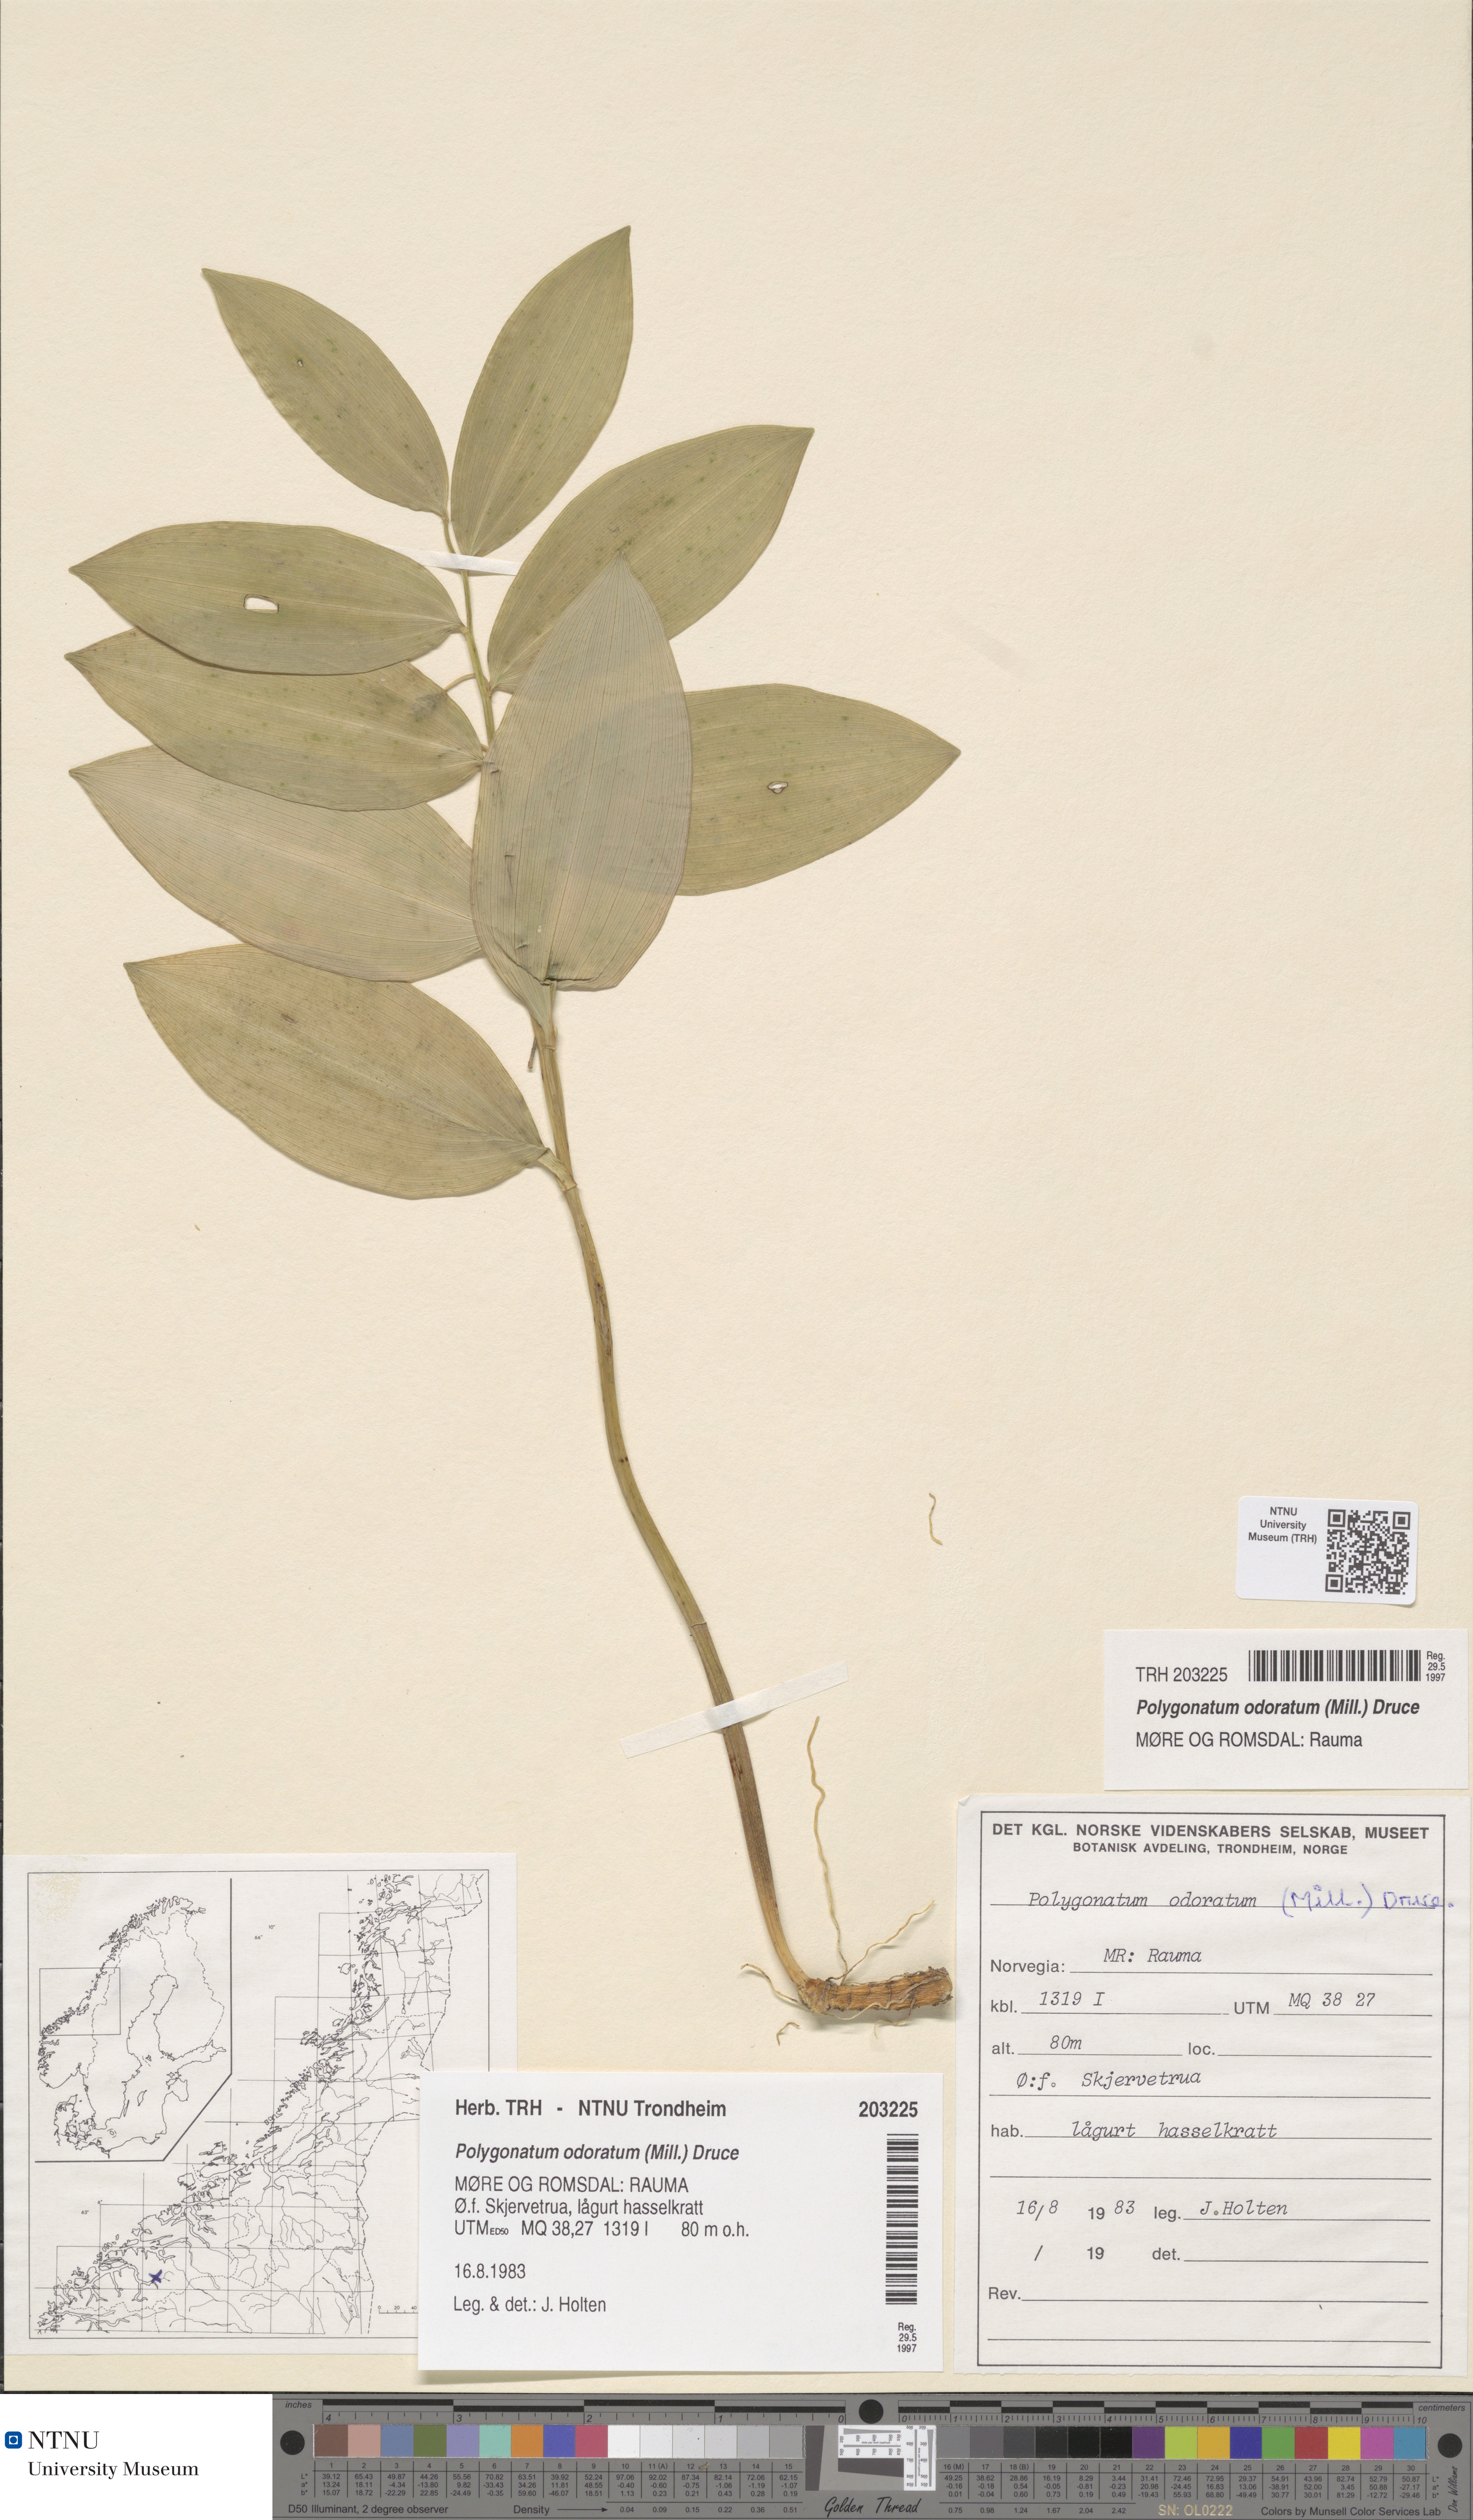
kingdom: Plantae
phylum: Tracheophyta
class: Liliopsida
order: Asparagales
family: Asparagaceae
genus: Polygonatum
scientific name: Polygonatum odoratum
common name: Angular solomon's-seal
